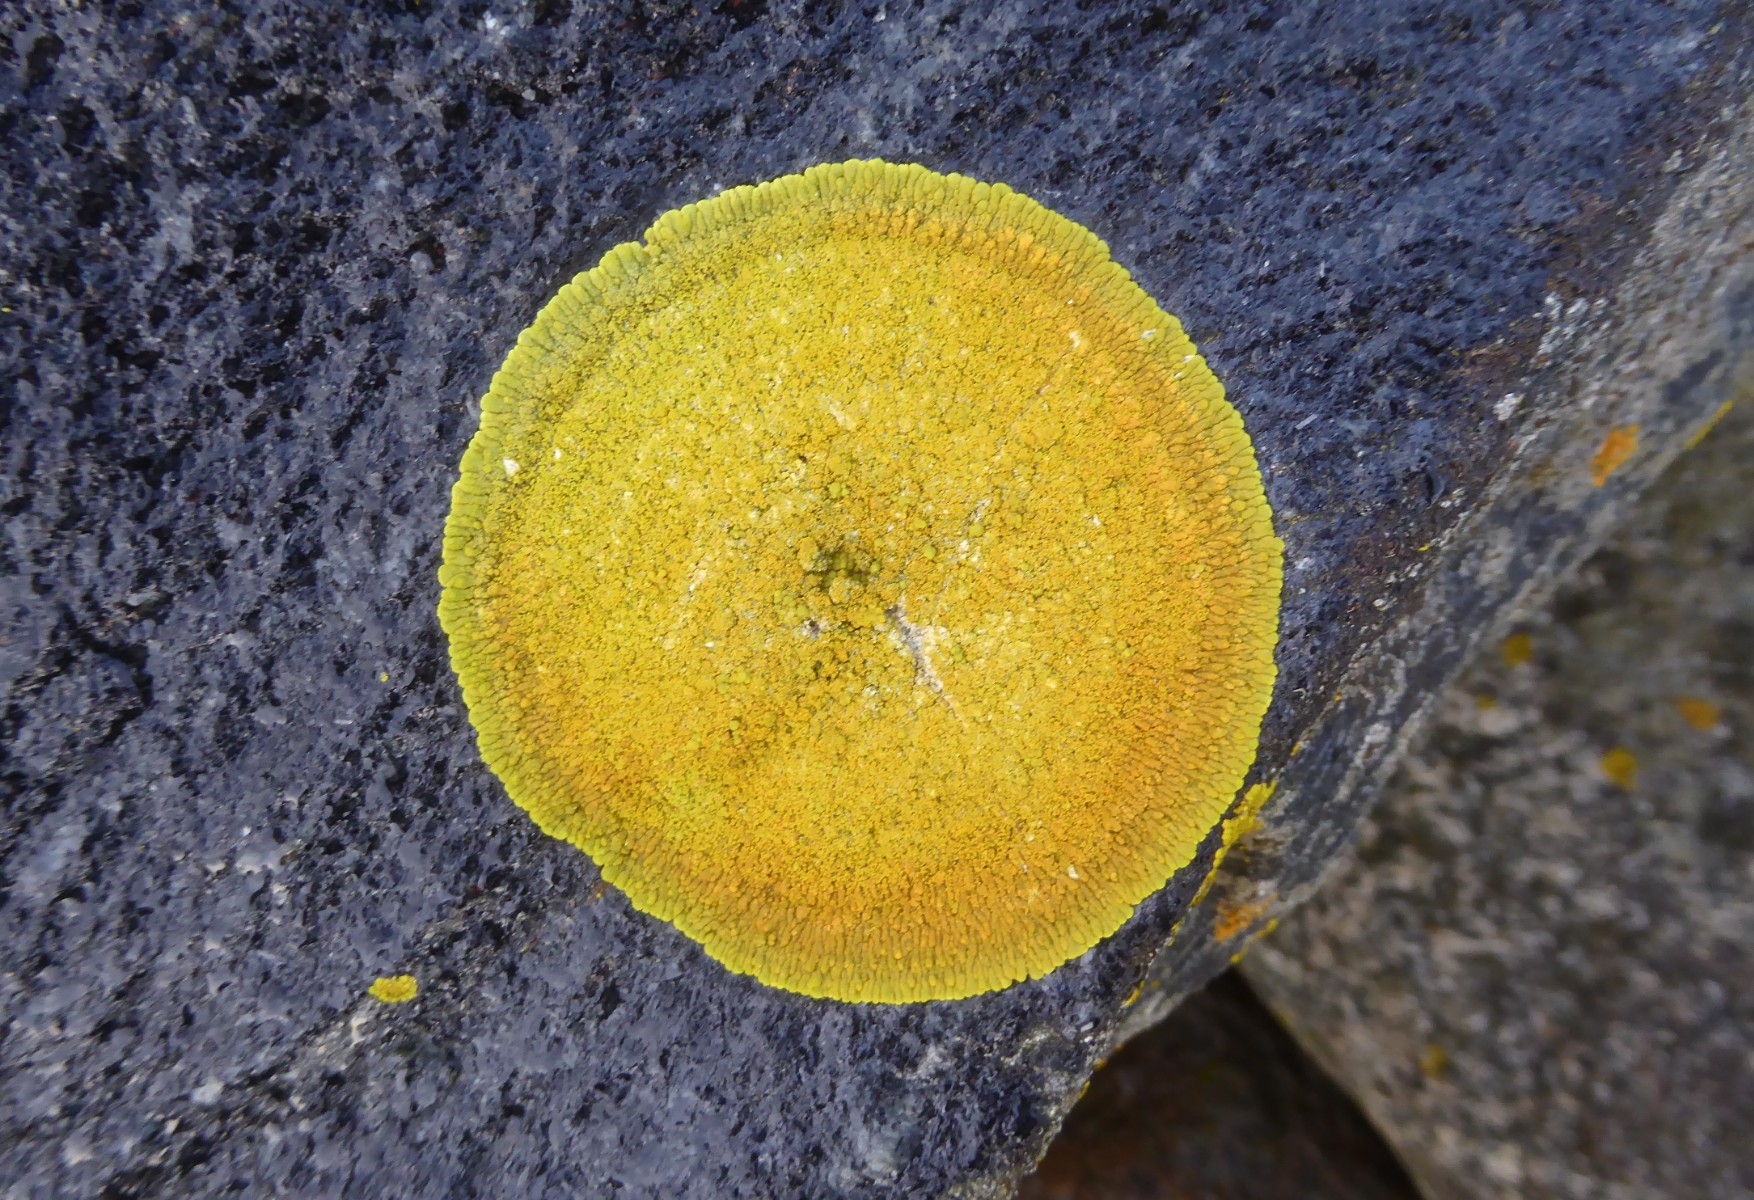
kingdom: Fungi
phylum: Ascomycota
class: Lecanoromycetes
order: Teloschistales
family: Teloschistaceae
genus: Verrucoplaca
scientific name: Verrucoplaca verruculifera
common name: koldkyst-orangelav
